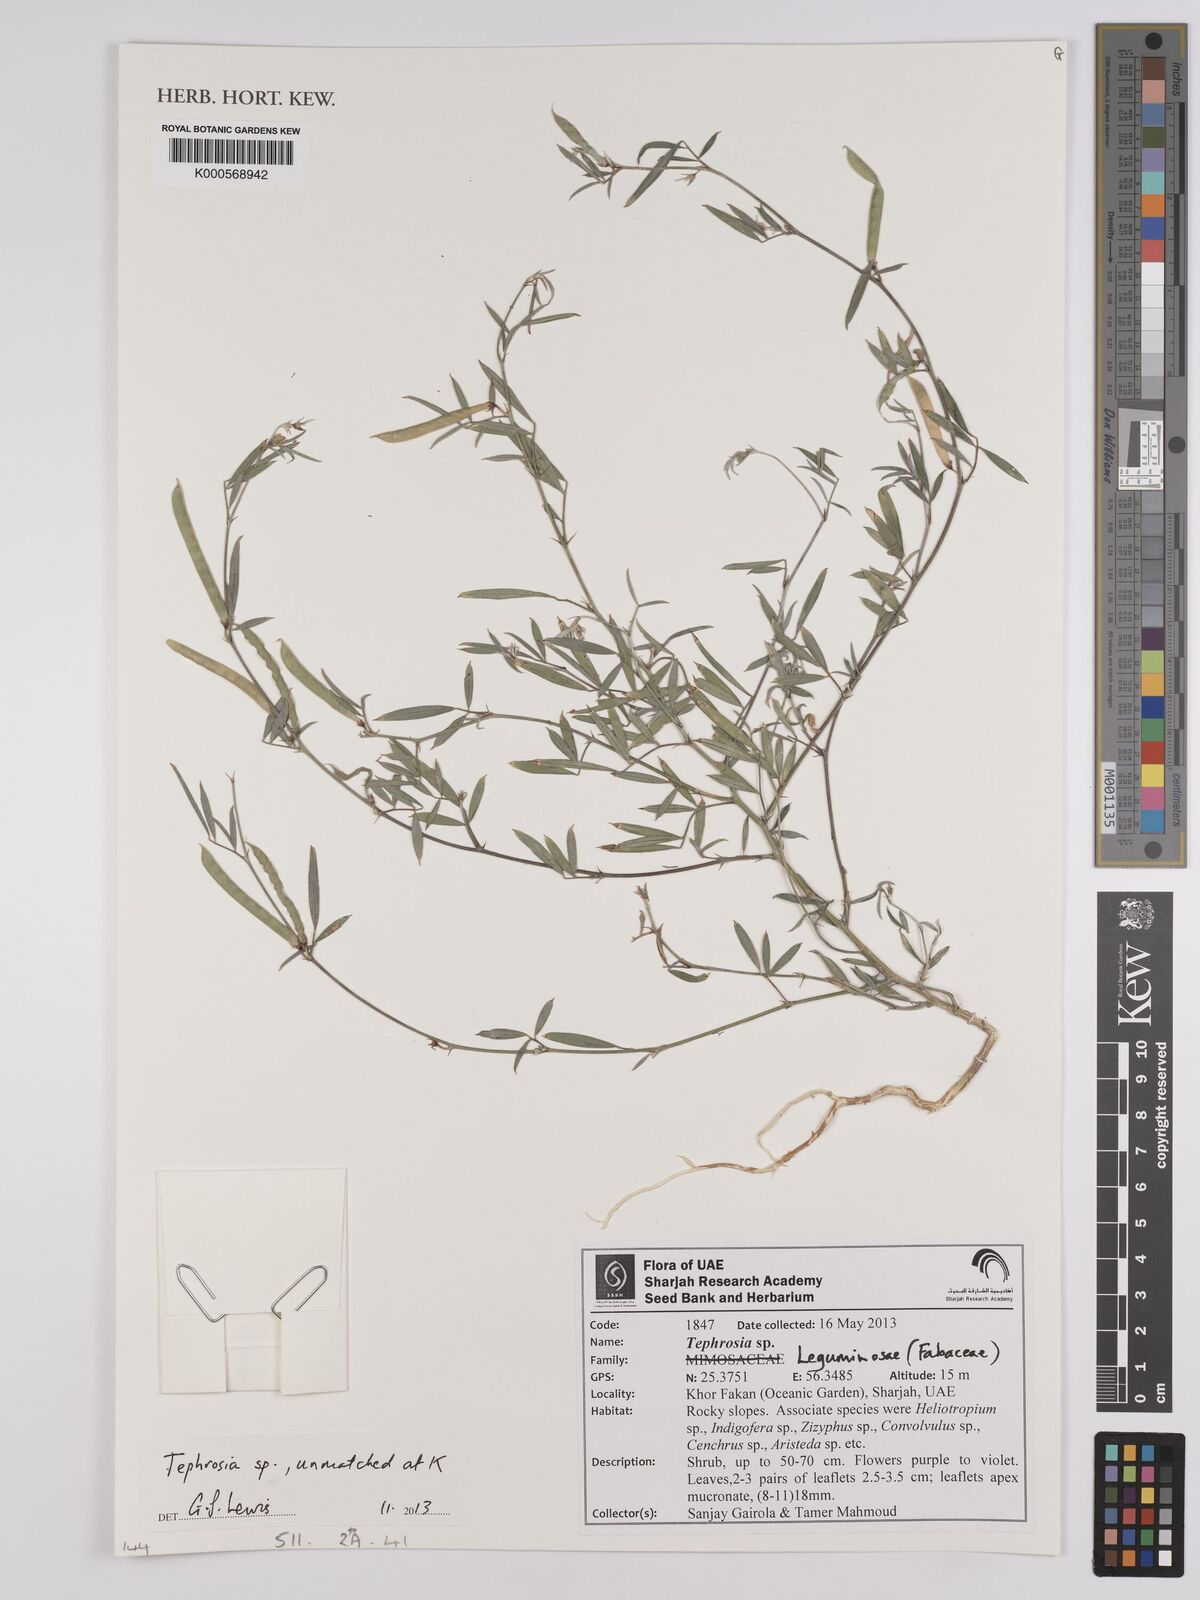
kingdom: Plantae
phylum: Tracheophyta
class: Magnoliopsida
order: Fabales
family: Fabaceae
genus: Tephrosia
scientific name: Tephrosia
